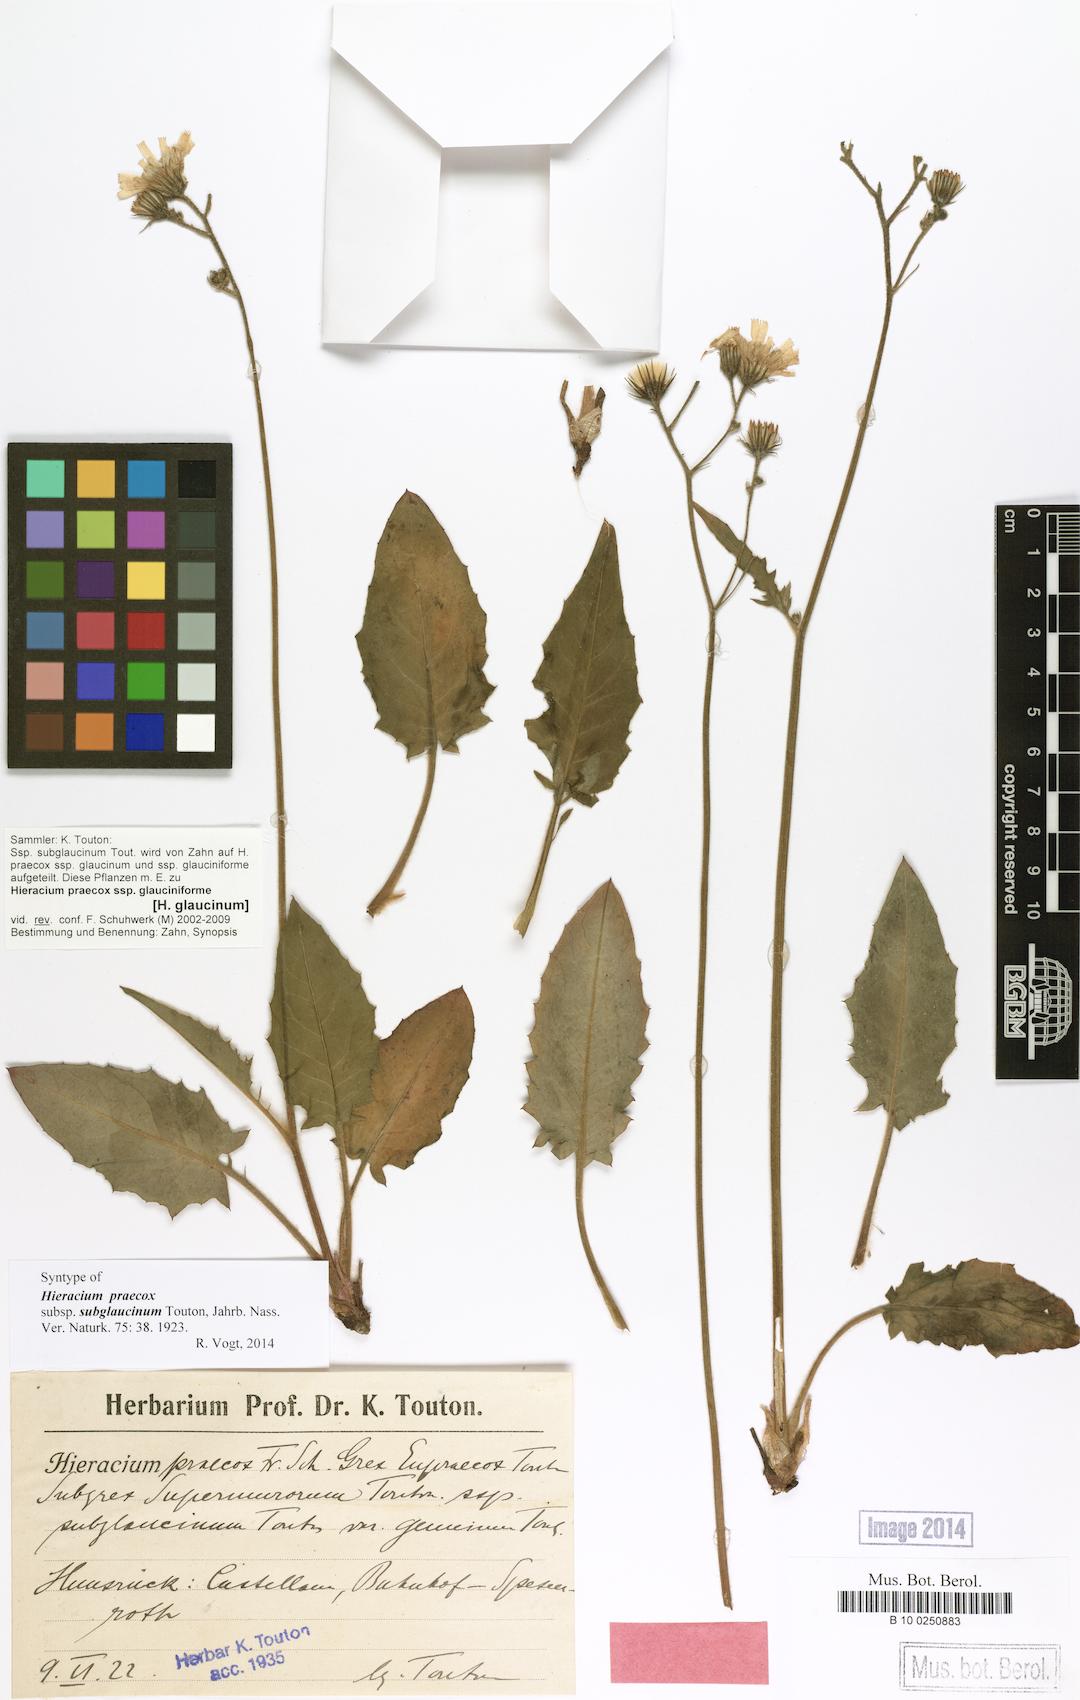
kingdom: Plantae
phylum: Tracheophyta
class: Magnoliopsida
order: Asterales
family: Asteraceae
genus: Hieracium
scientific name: Hieracium glaucinum
